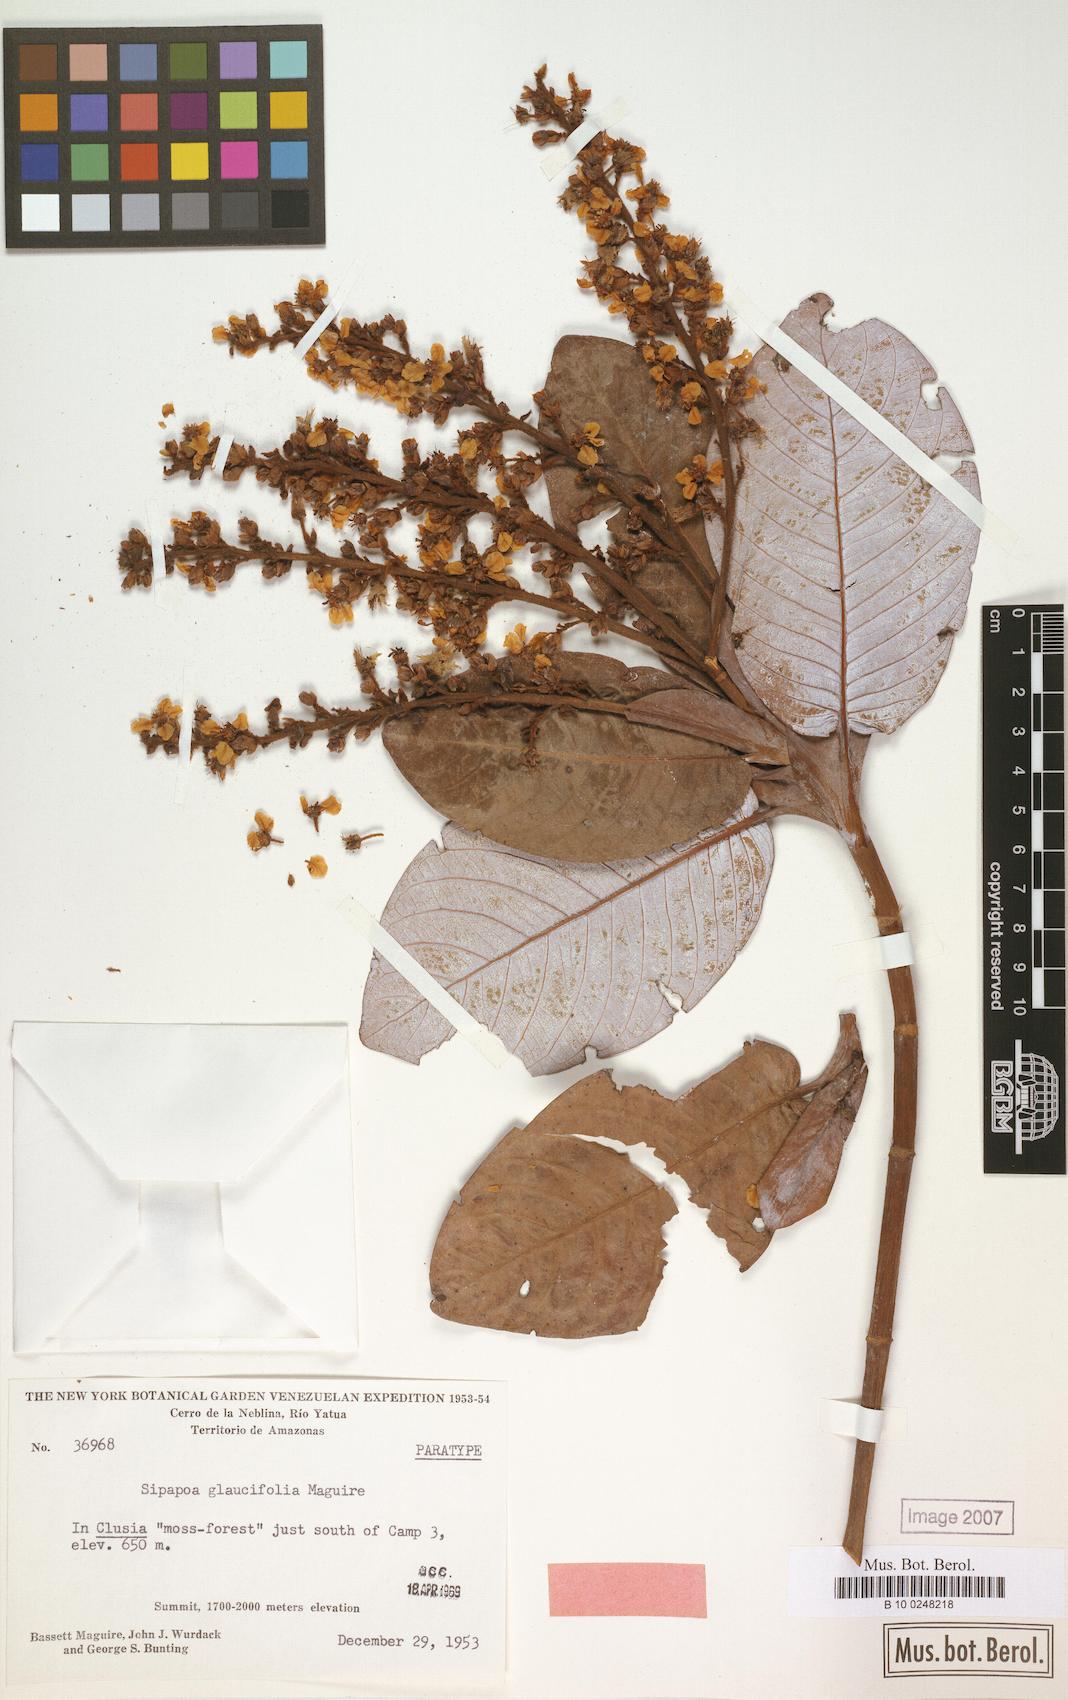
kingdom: Plantae
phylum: Tracheophyta
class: Magnoliopsida
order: Malpighiales
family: Malpighiaceae
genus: Diacidia
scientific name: Diacidia glaucifolia
